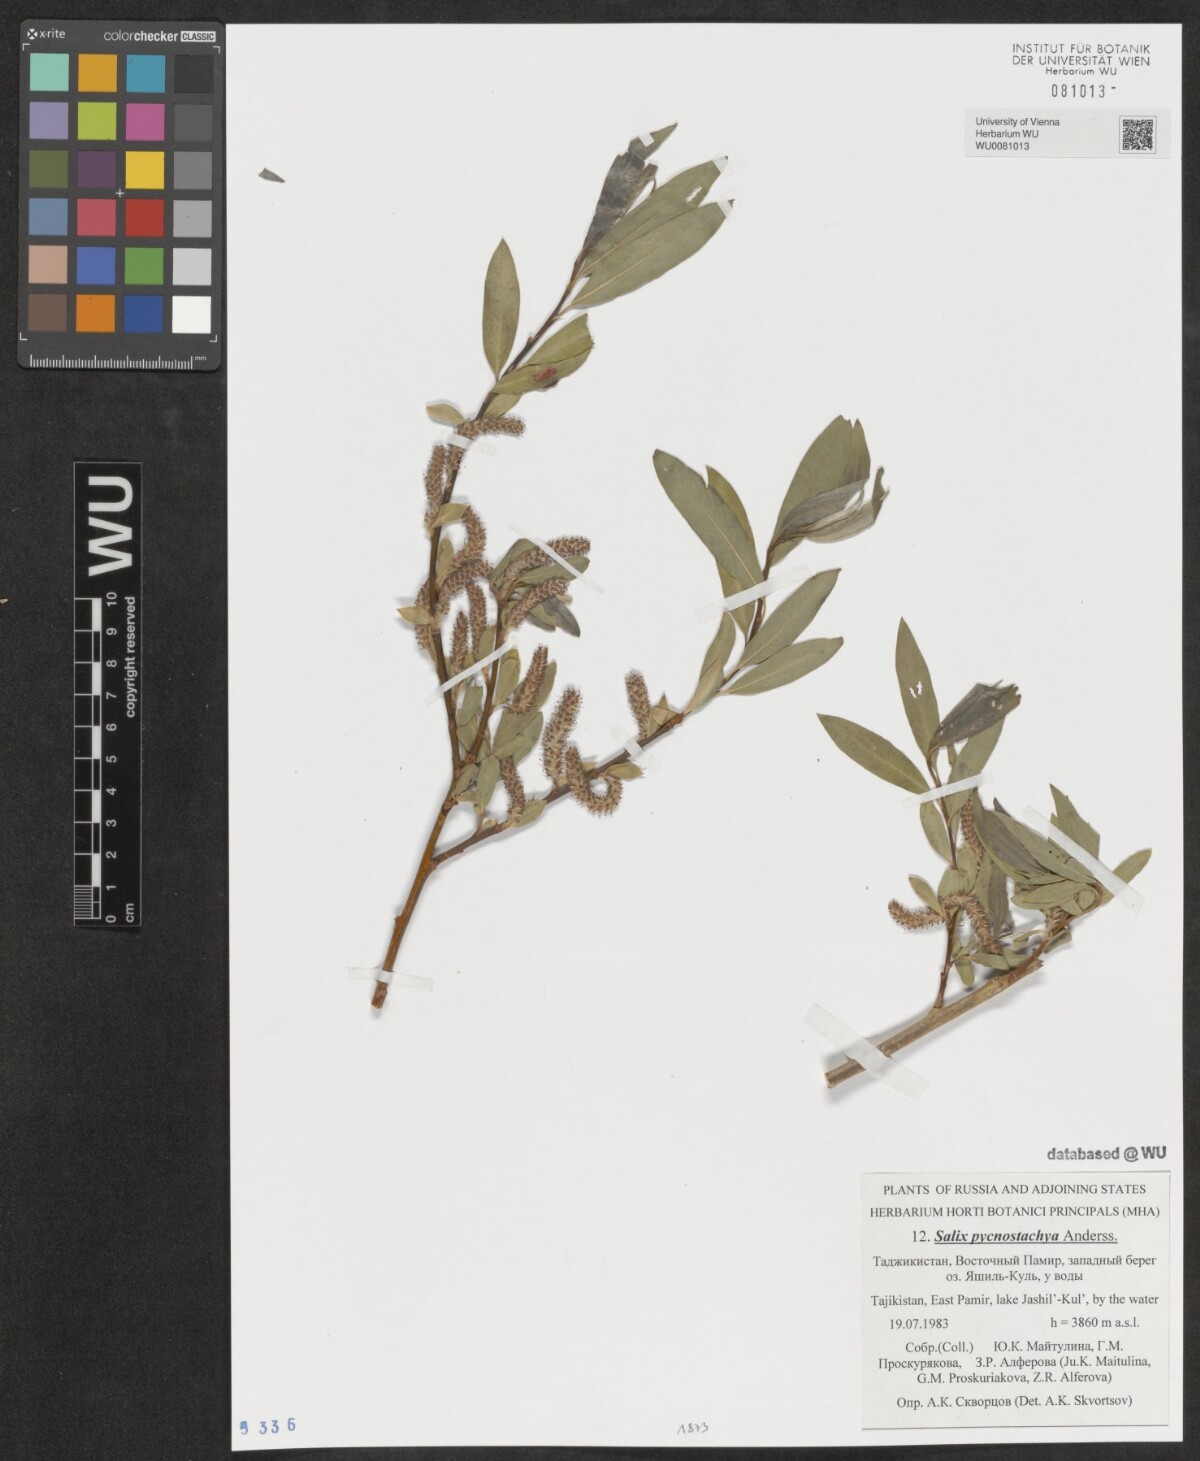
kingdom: Plantae
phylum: Tracheophyta
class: Magnoliopsida
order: Malpighiales
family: Salicaceae
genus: Salix
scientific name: Salix pycnostachya
